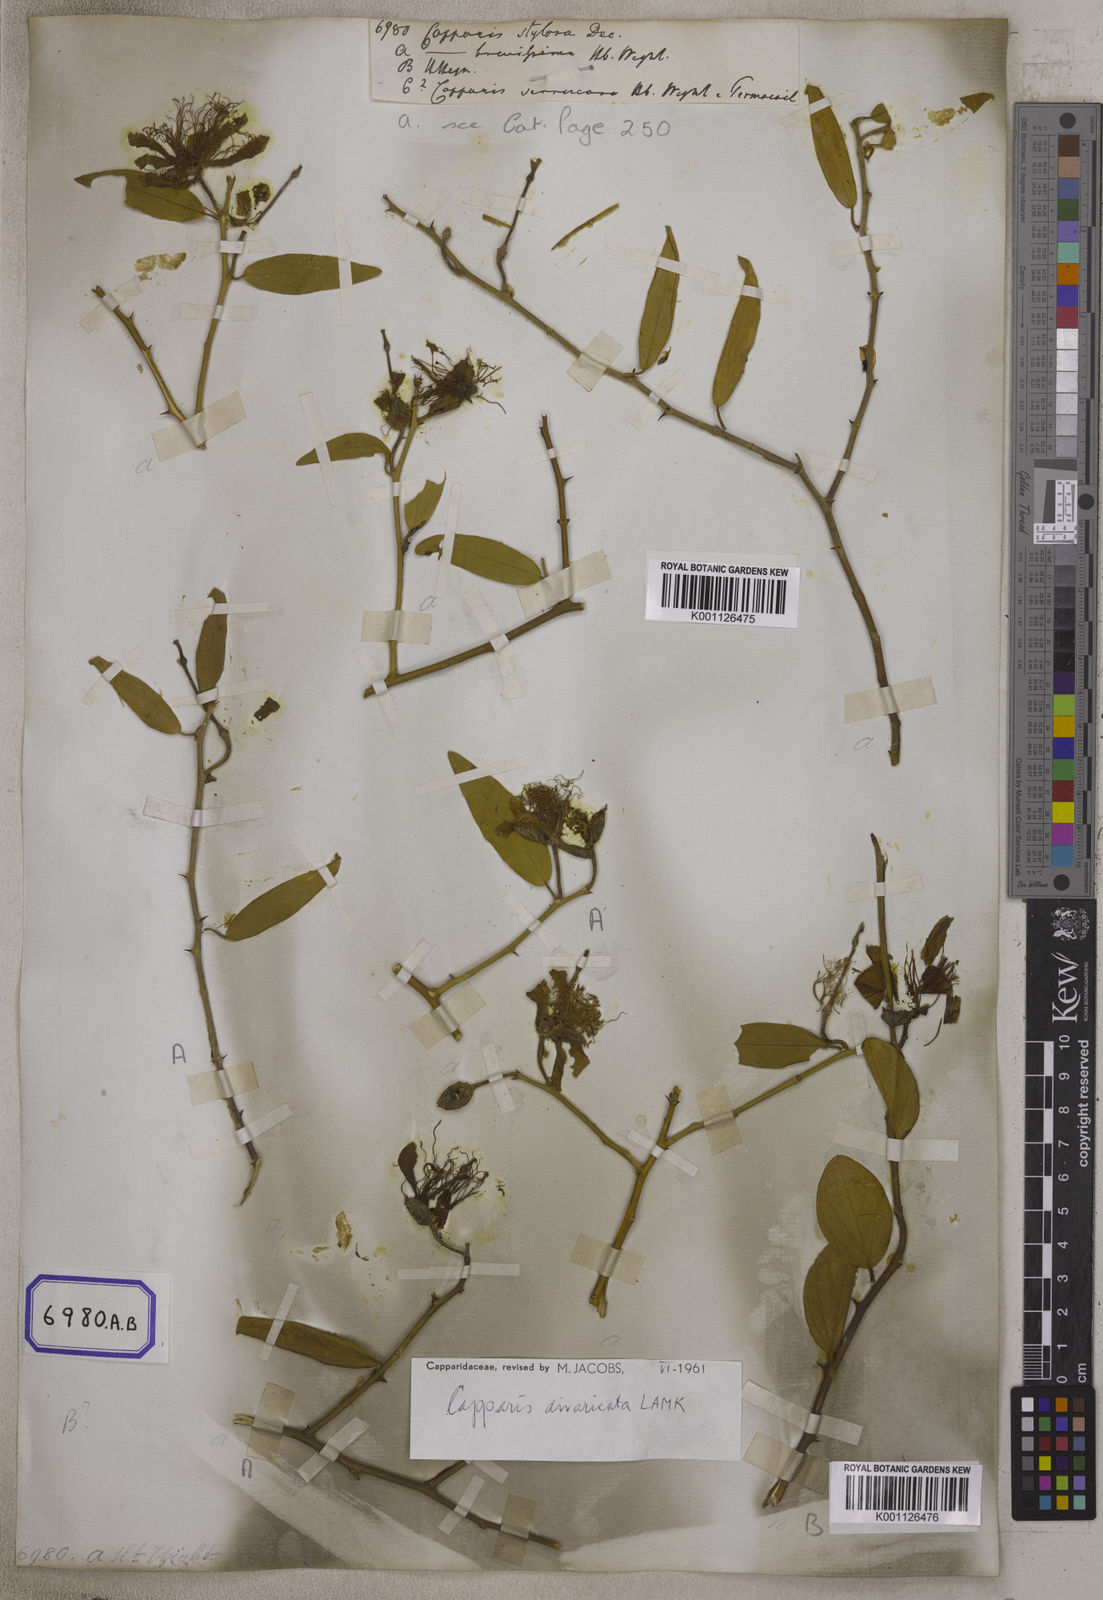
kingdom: Plantae
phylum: Tracheophyta
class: Magnoliopsida
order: Brassicales
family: Capparaceae
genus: Capparis
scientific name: Capparis divaricata
